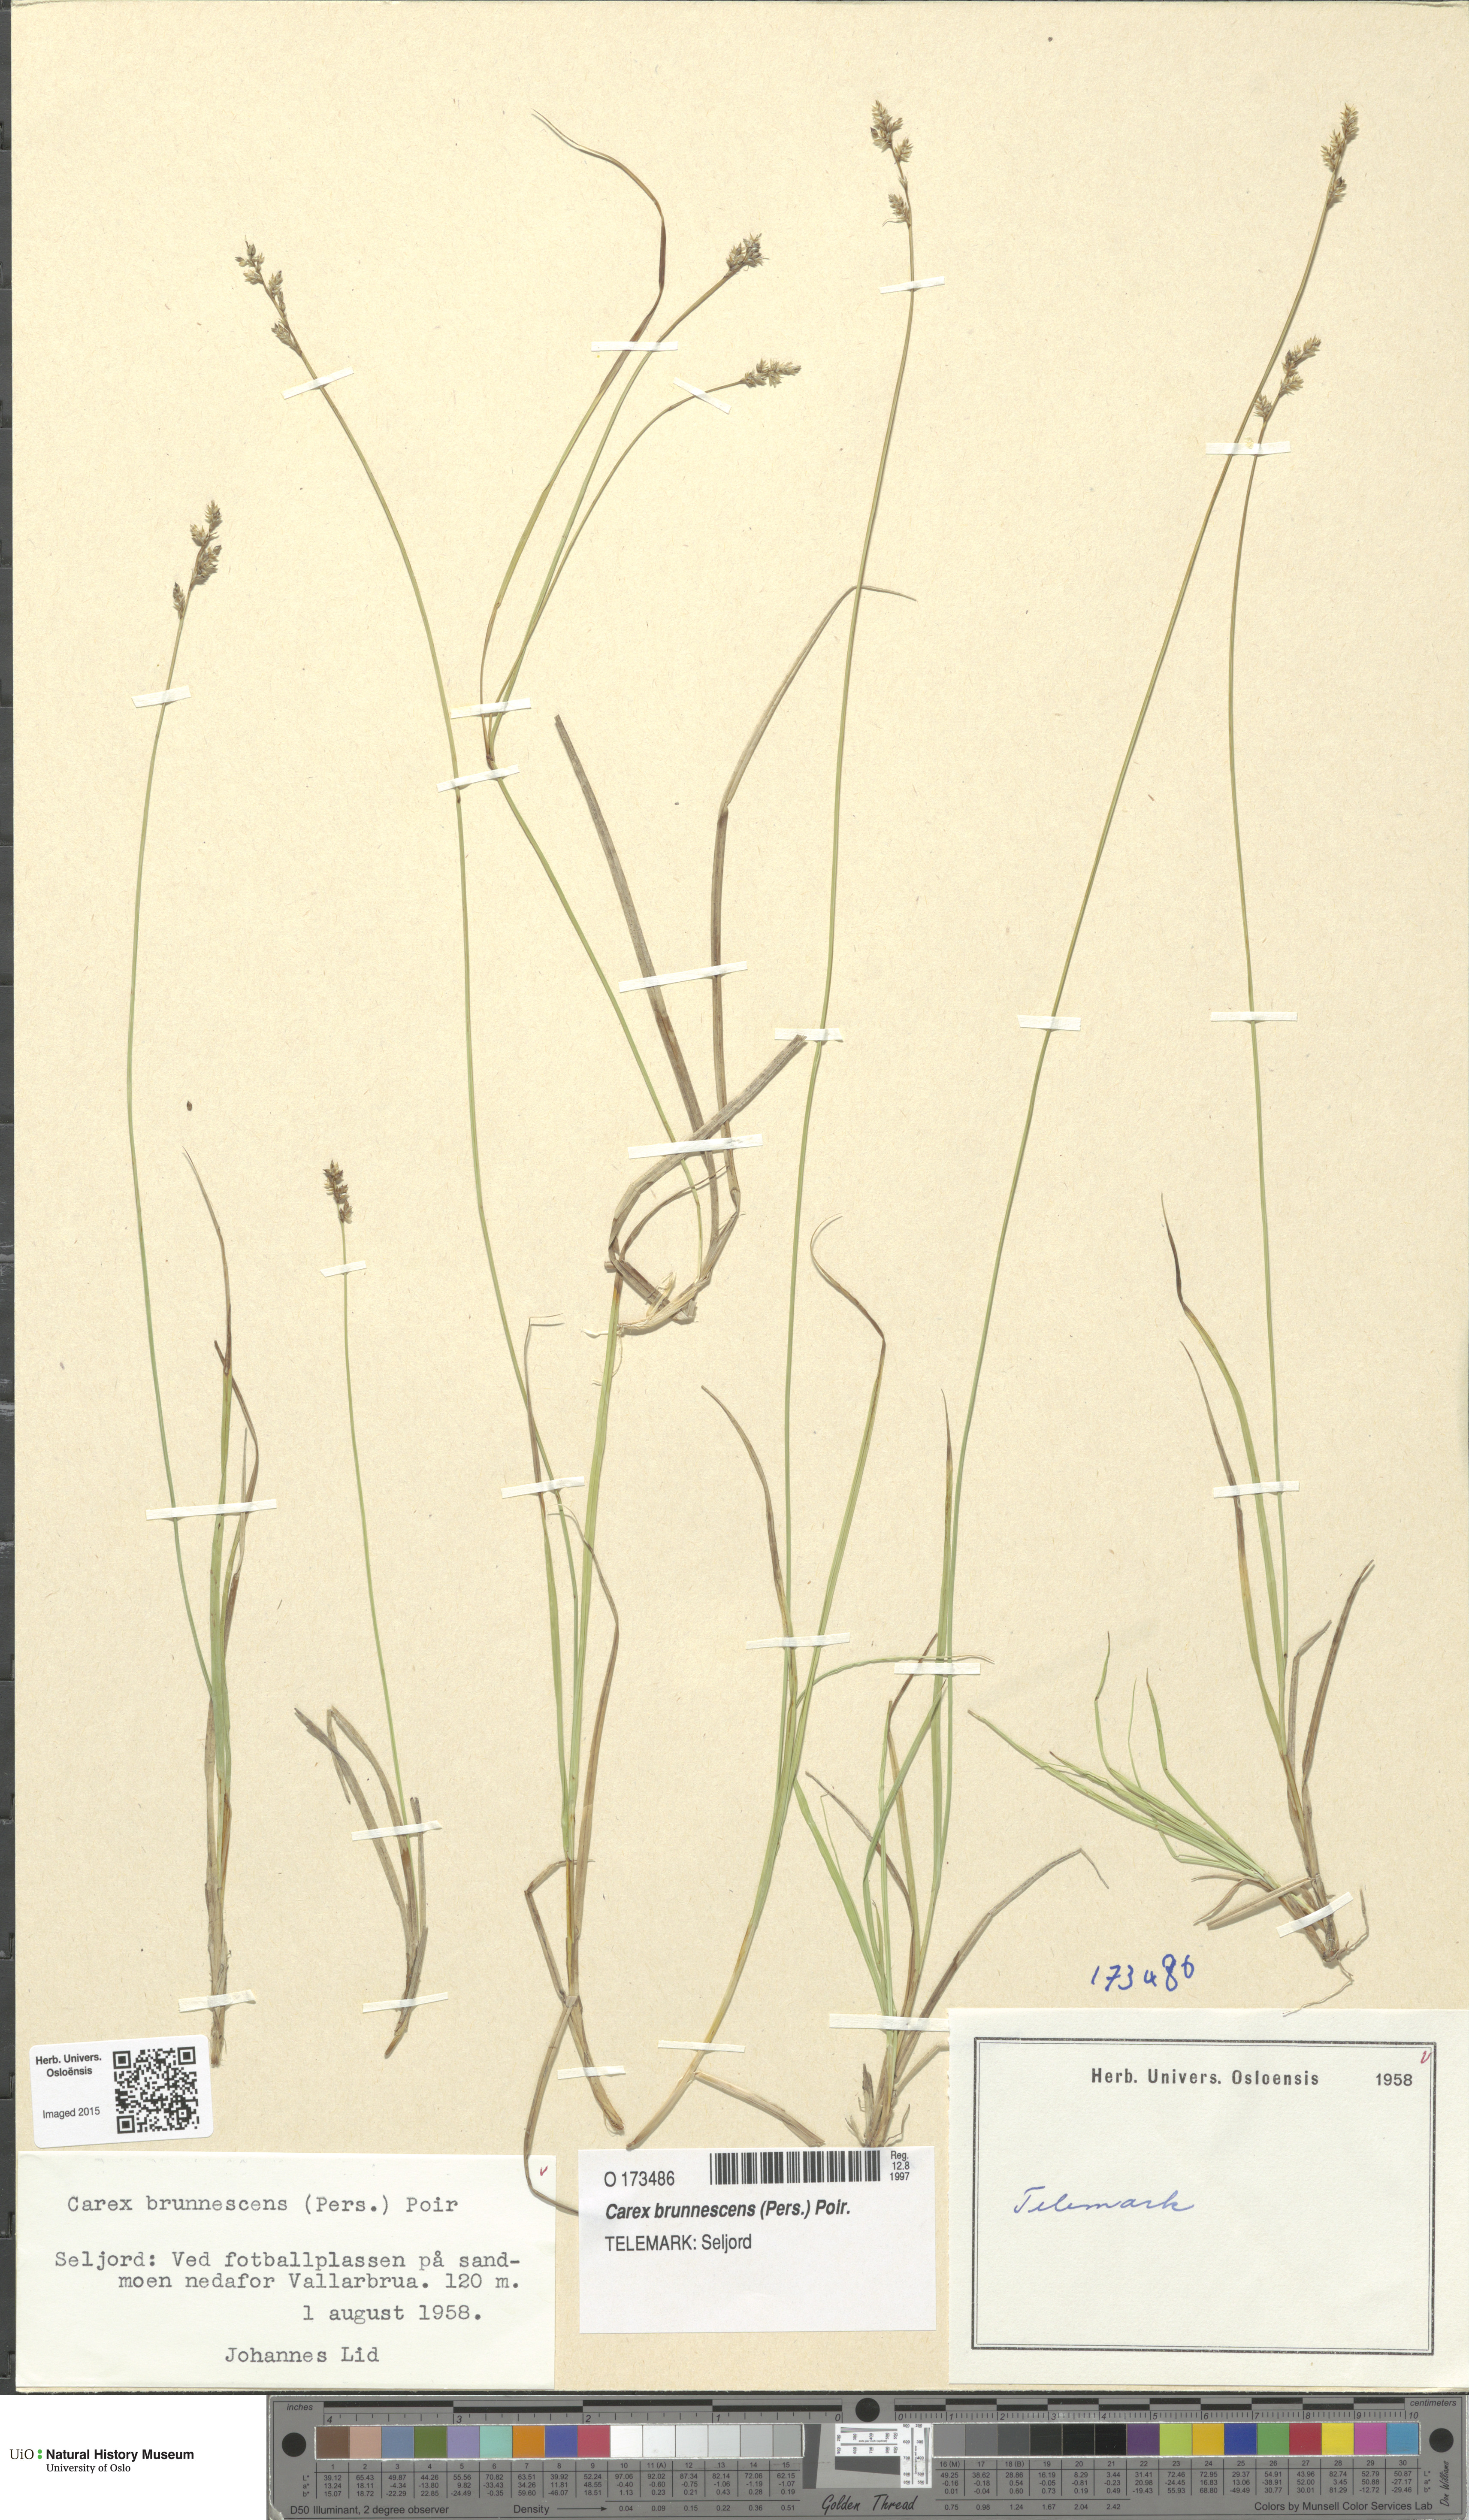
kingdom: Plantae
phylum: Tracheophyta
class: Liliopsida
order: Poales
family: Cyperaceae
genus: Carex
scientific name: Carex brunnescens
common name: Brown sedge
